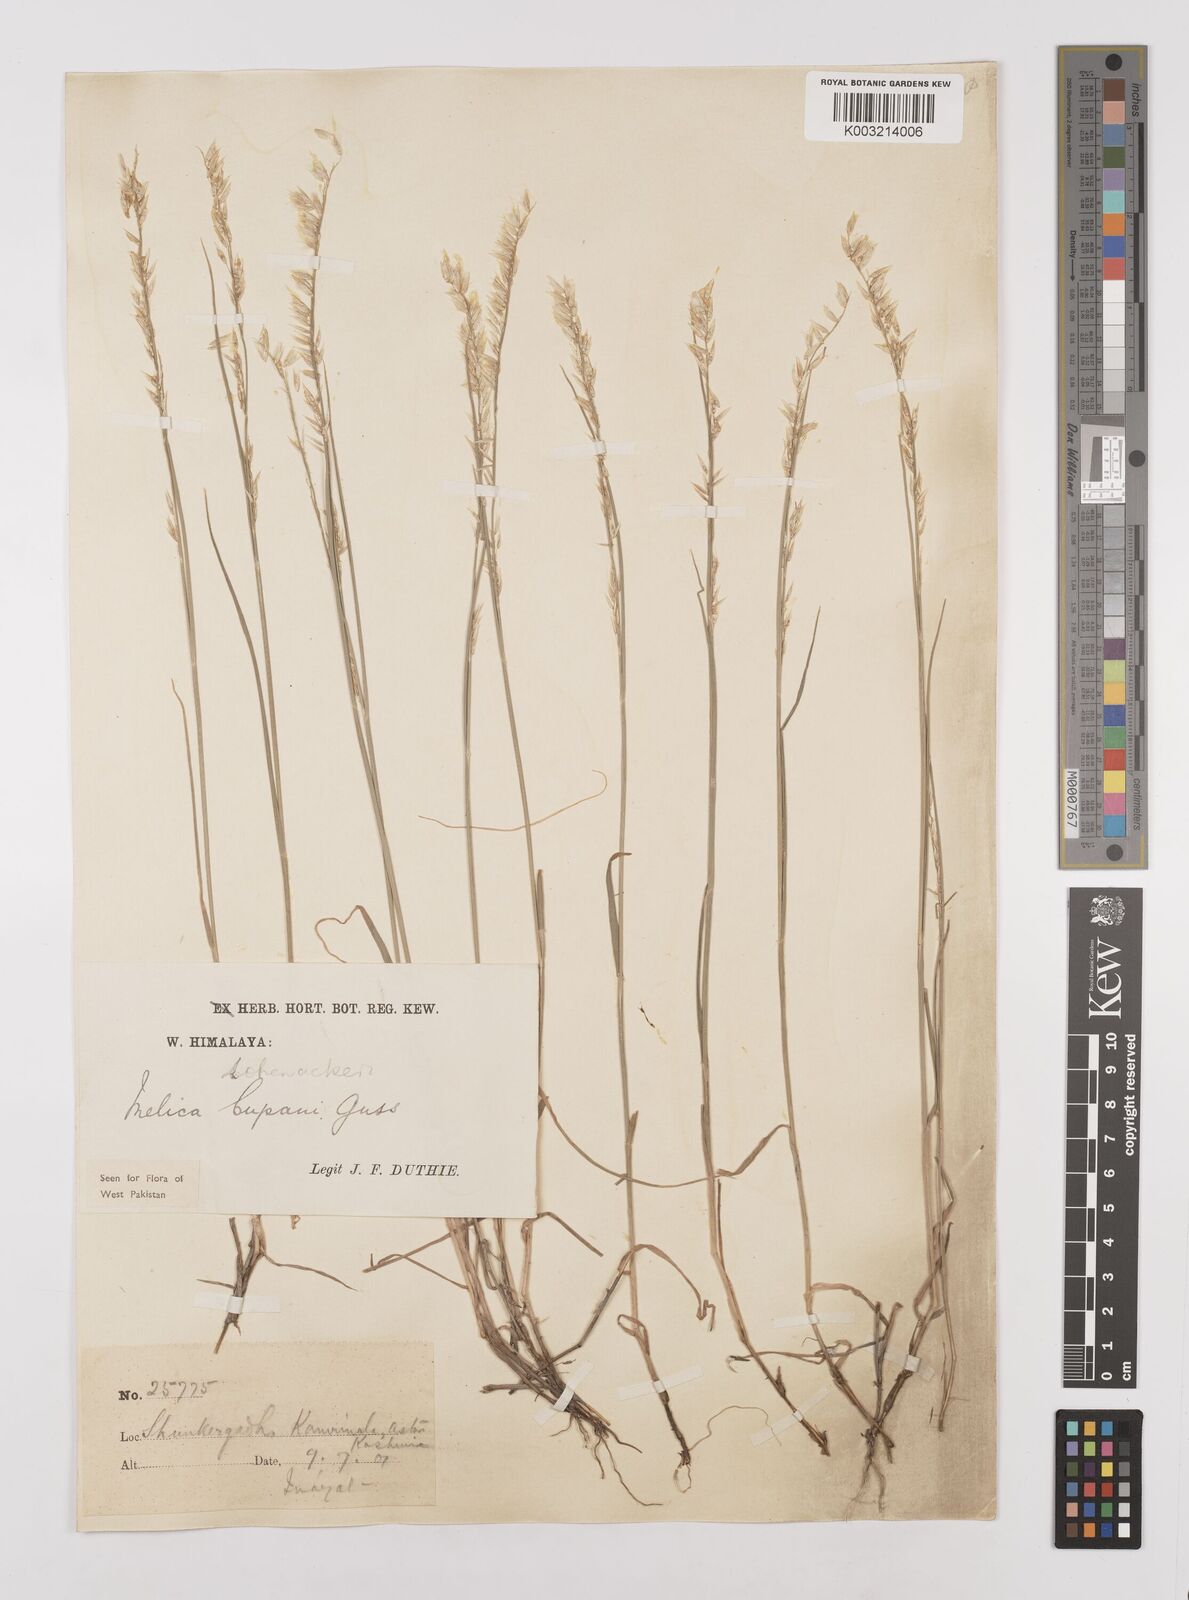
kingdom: Plantae
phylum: Tracheophyta
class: Liliopsida
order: Poales
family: Poaceae
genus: Melica
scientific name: Melica persica
